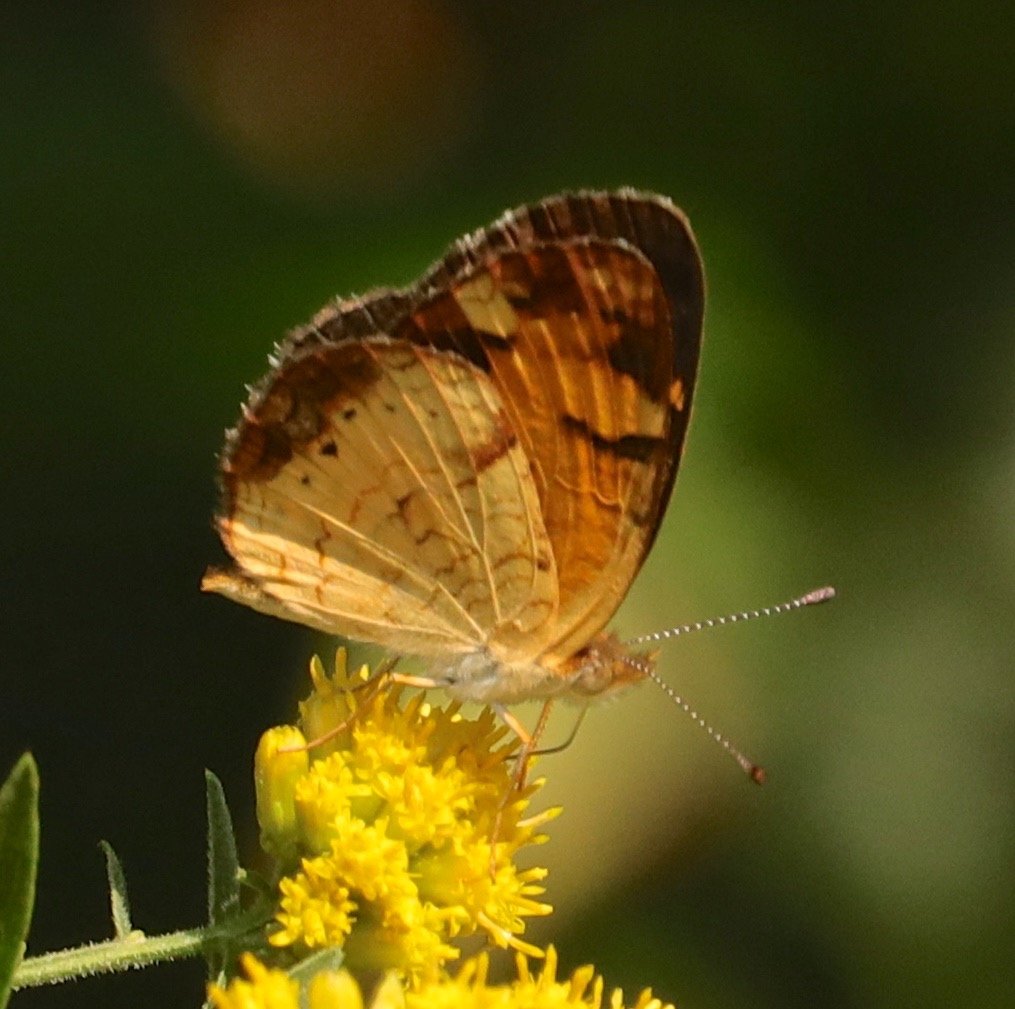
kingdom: Animalia
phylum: Arthropoda
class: Insecta
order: Lepidoptera
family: Nymphalidae
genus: Phyciodes
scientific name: Phyciodes tharos
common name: Pearl Crescent
